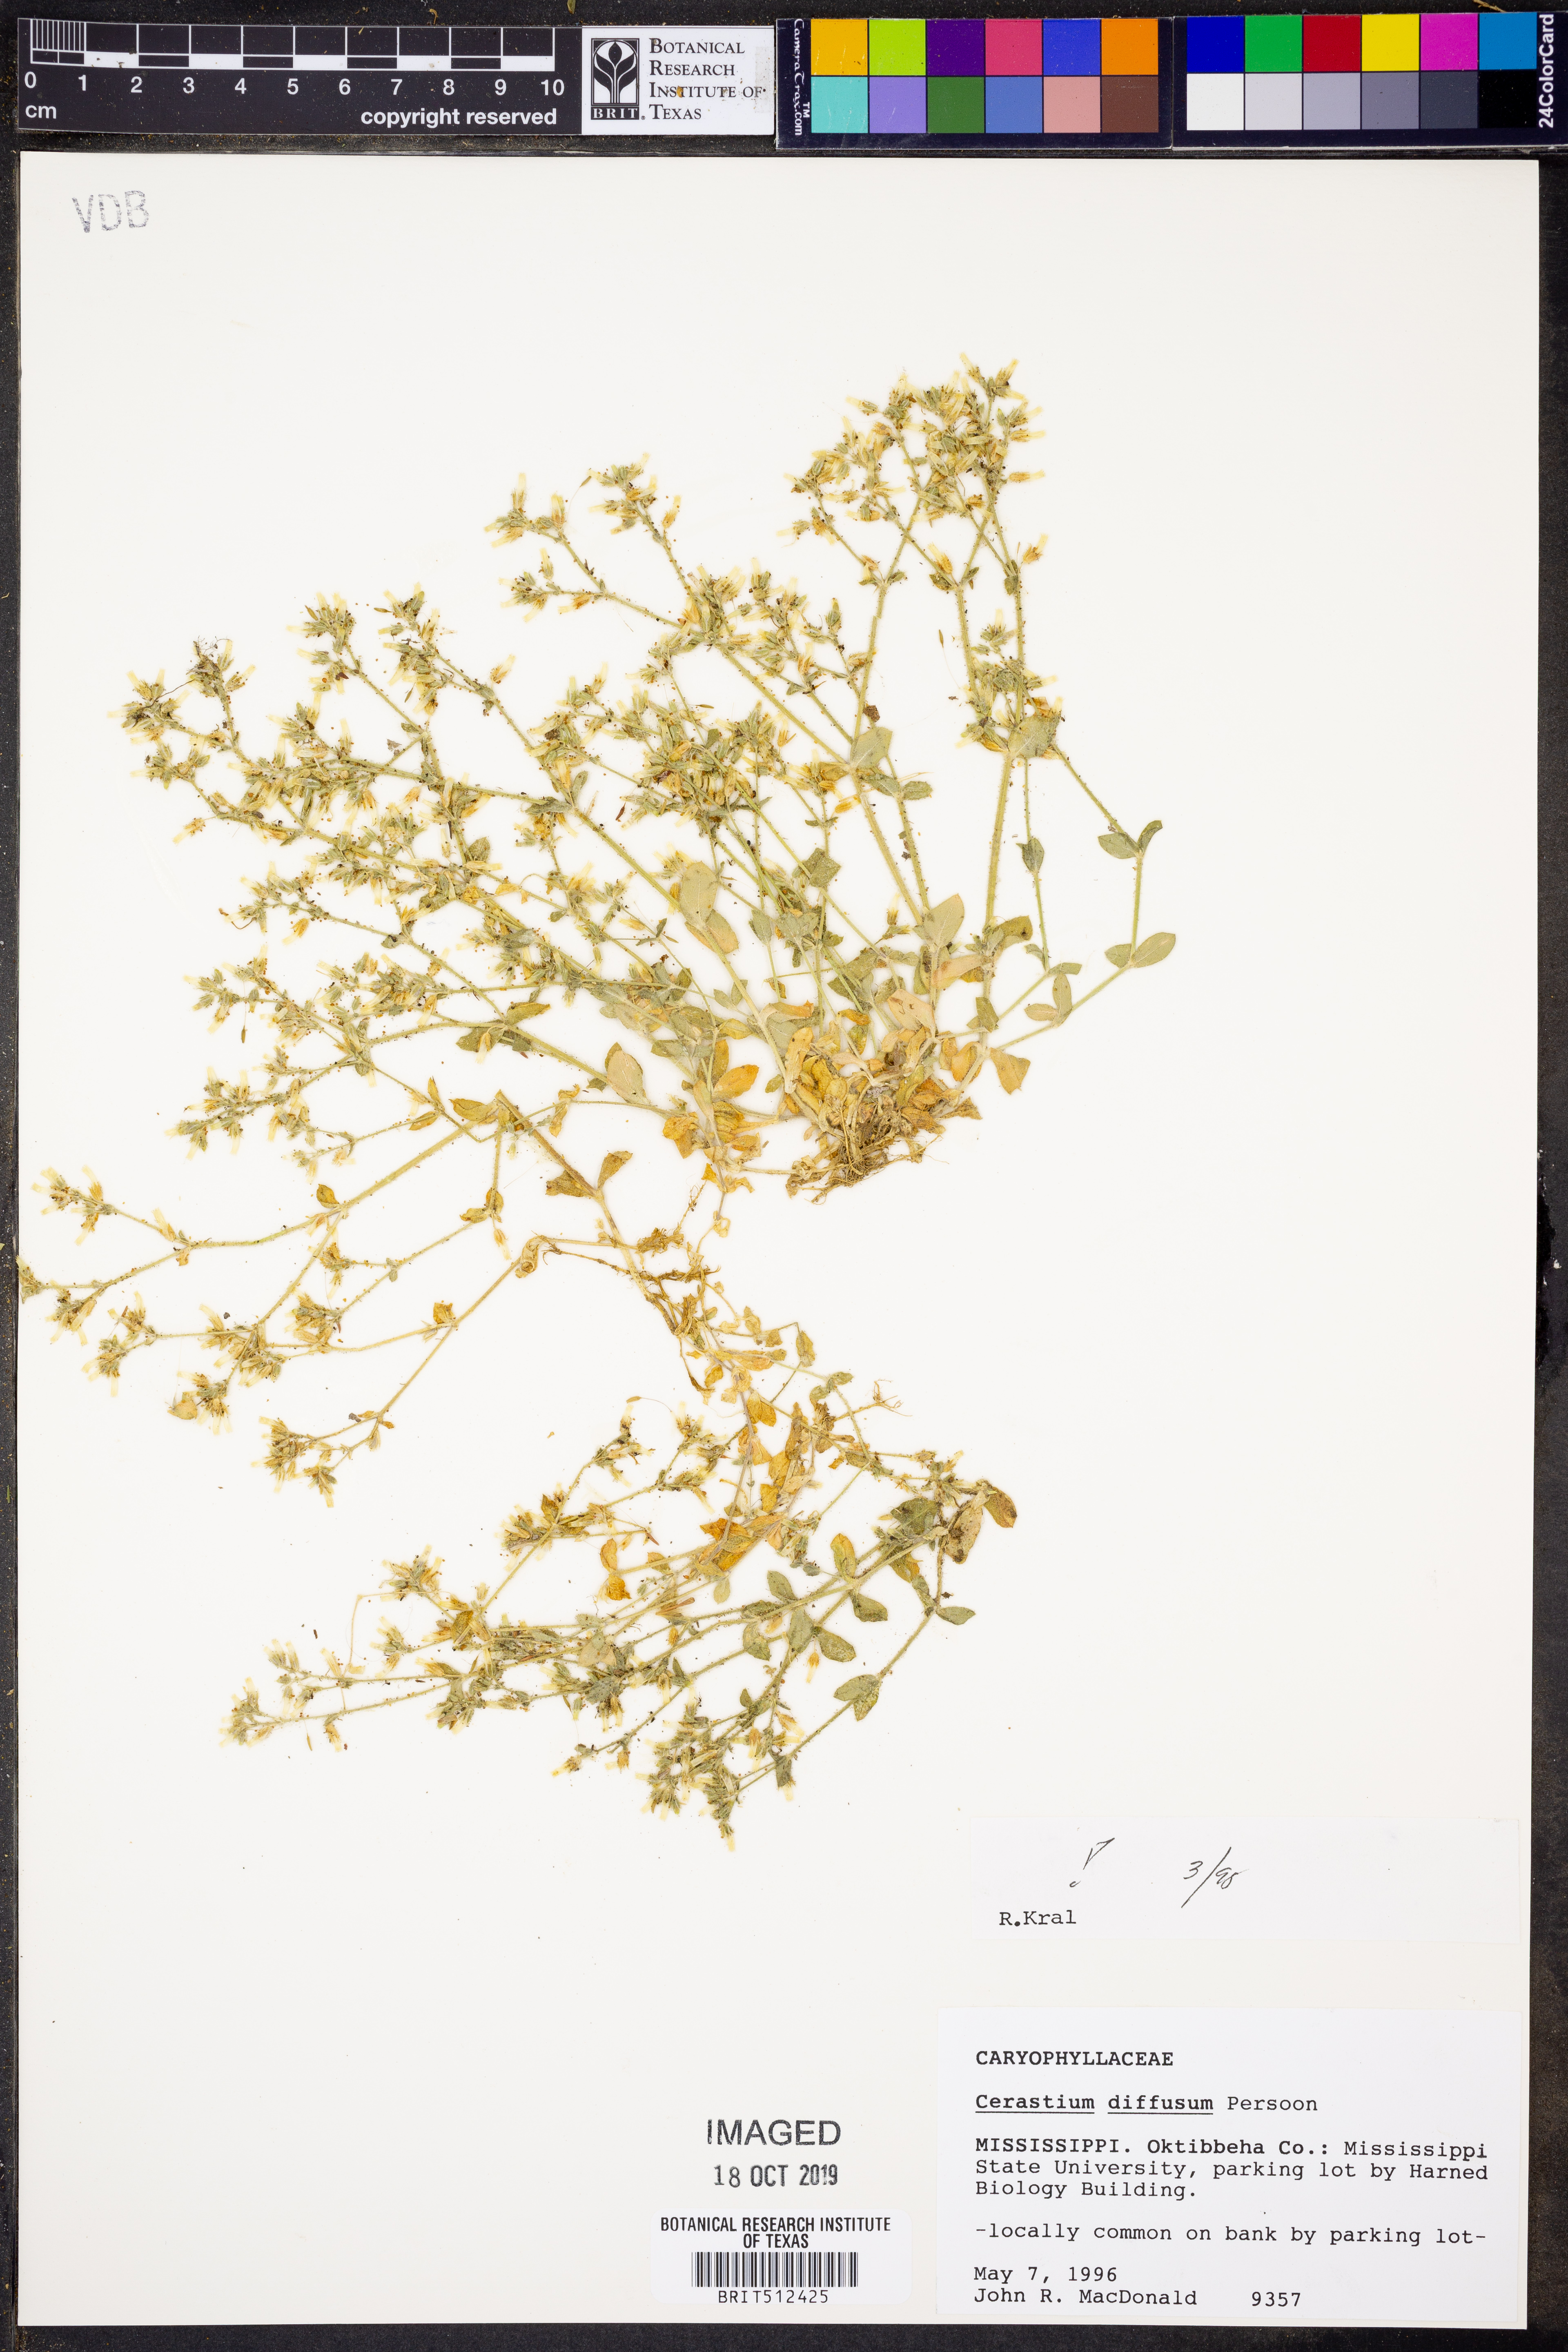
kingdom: Plantae
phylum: Tracheophyta
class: Magnoliopsida
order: Caryophyllales
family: Caryophyllaceae
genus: Cerastium
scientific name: Cerastium diffusum
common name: Fourstamen chickweed
